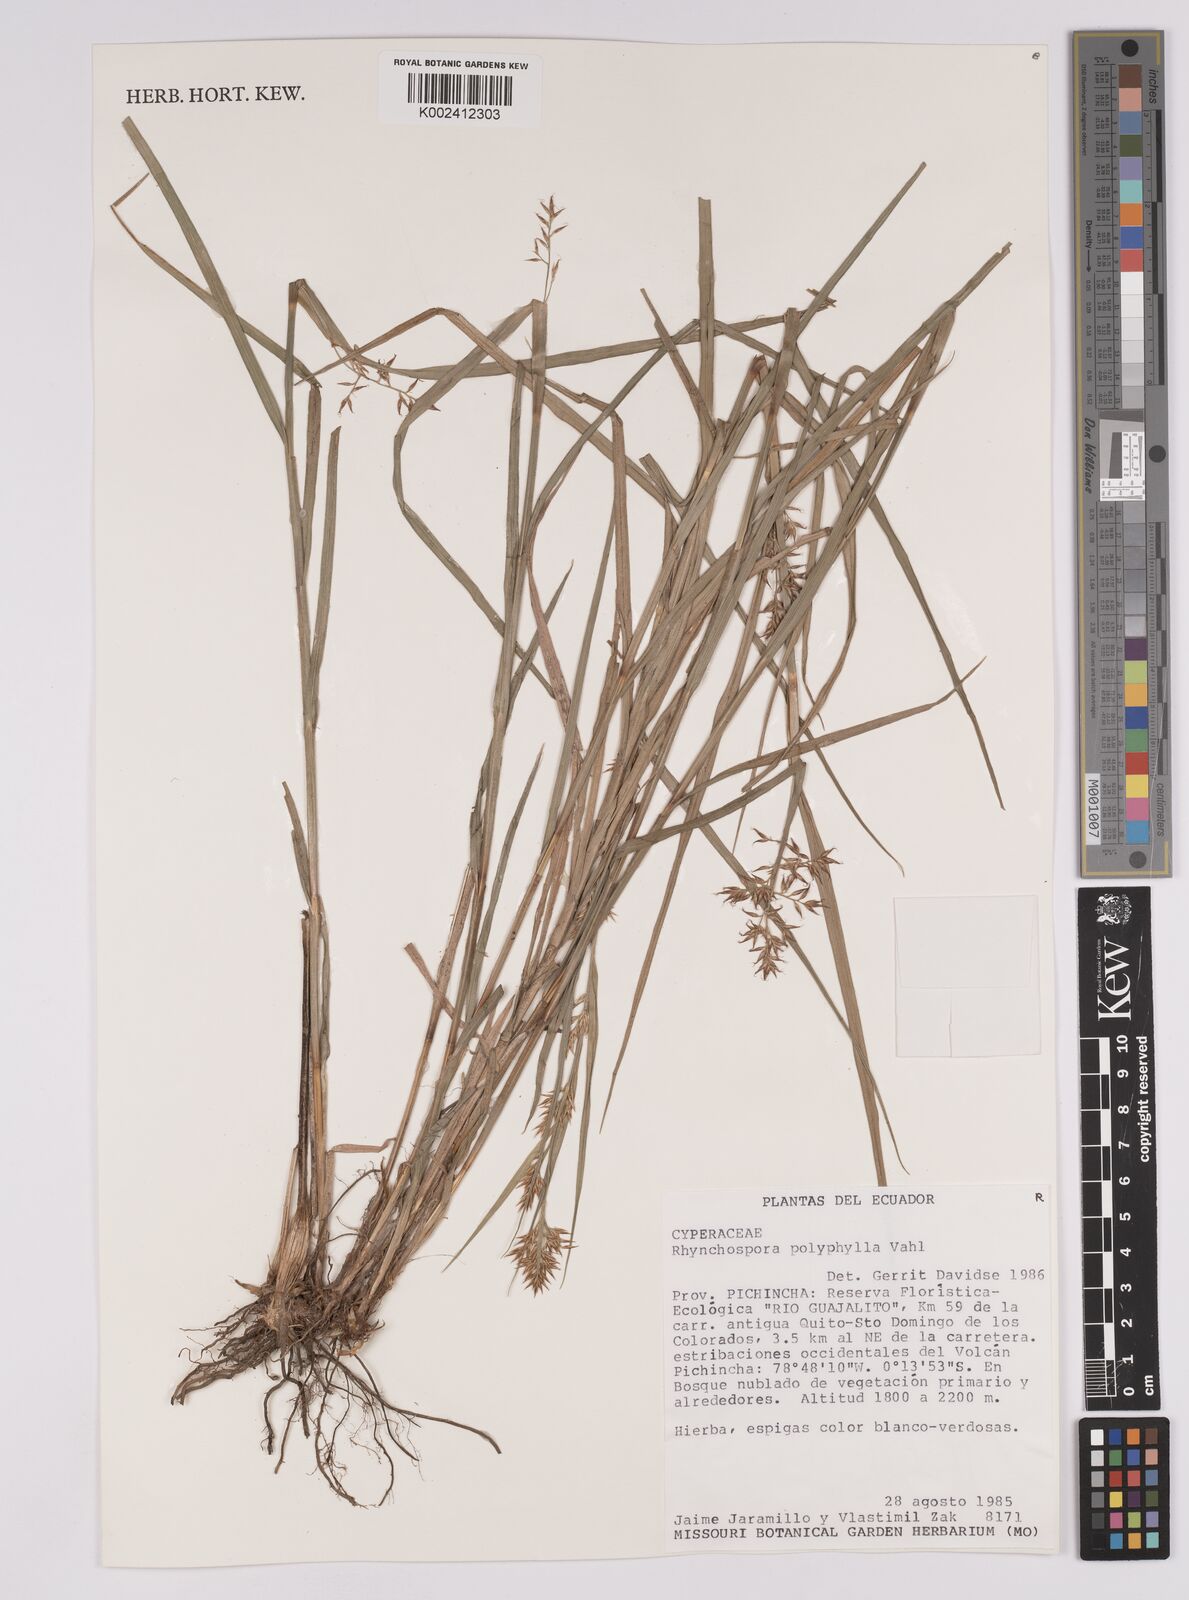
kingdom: Plantae
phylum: Tracheophyta
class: Liliopsida
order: Poales
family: Cyperaceae
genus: Rhynchospora
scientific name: Rhynchospora polyphylla
